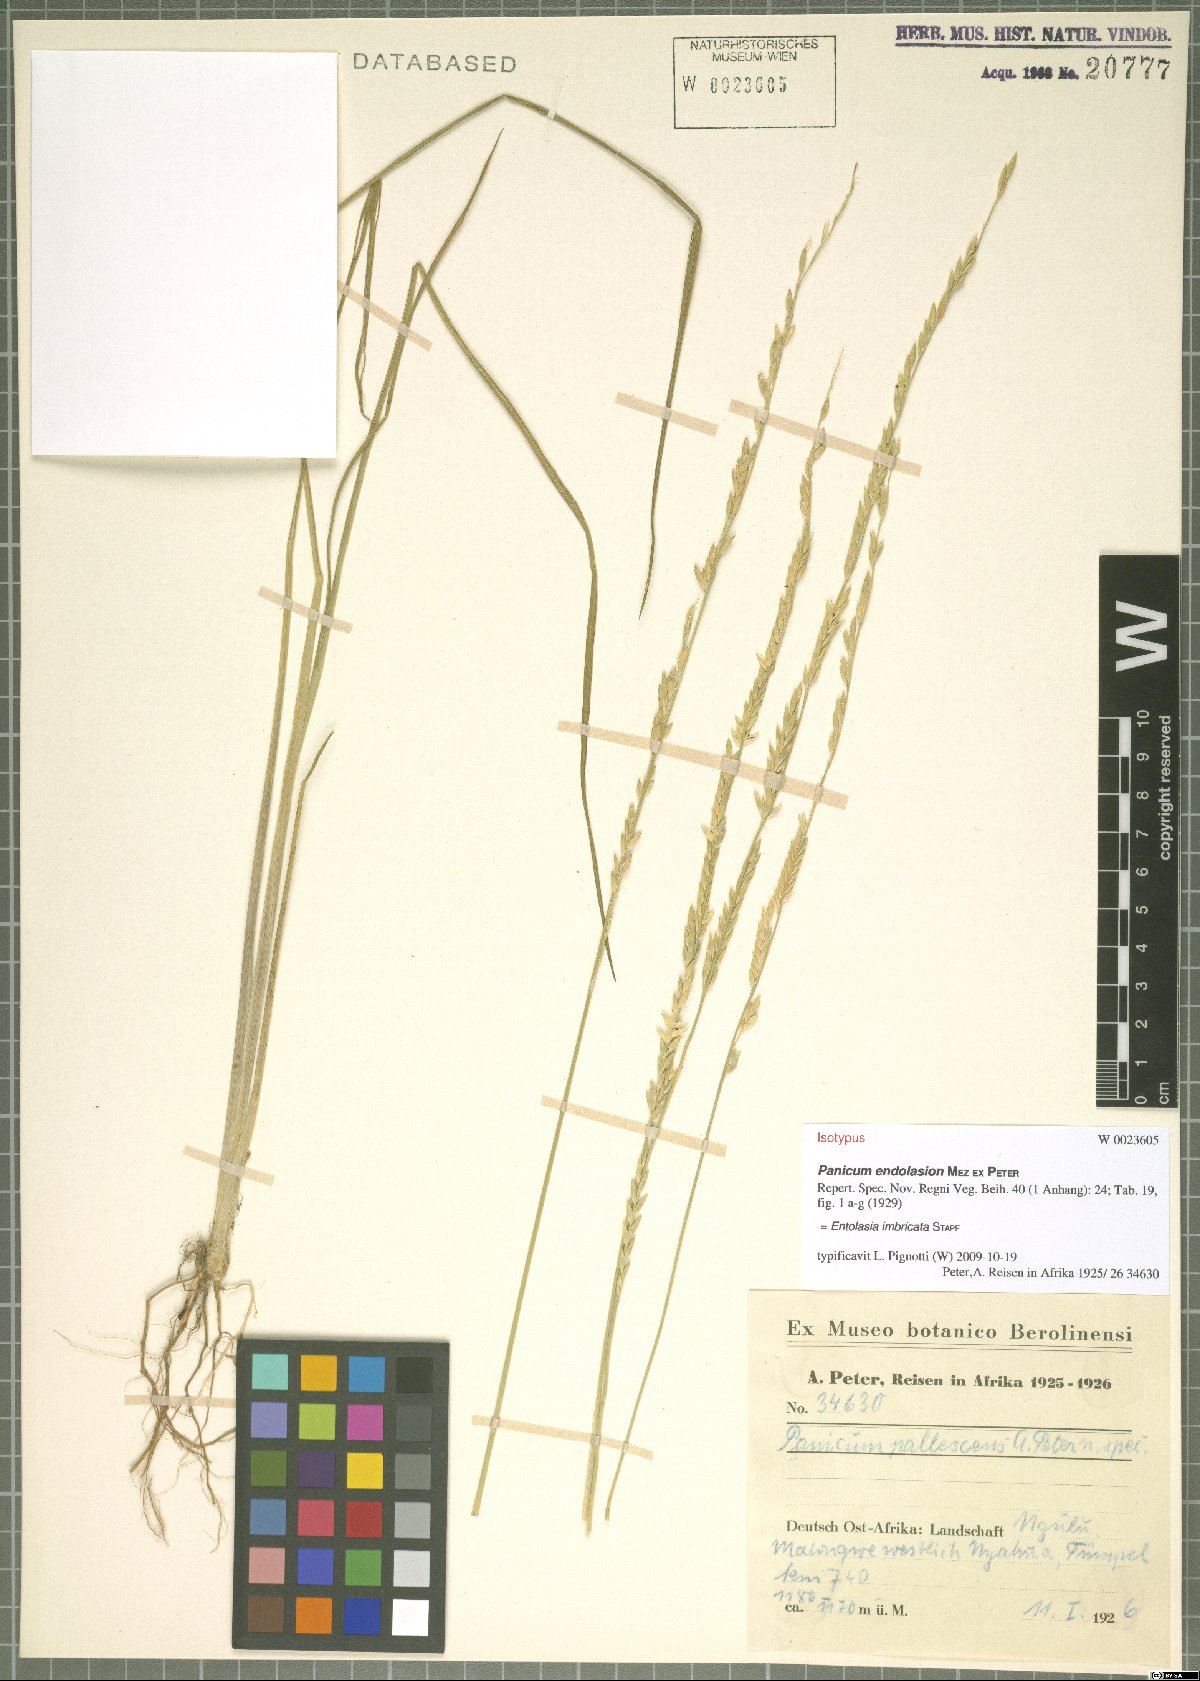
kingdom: Plantae
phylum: Tracheophyta
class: Liliopsida
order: Poales
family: Poaceae
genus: Entolasia
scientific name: Entolasia imbricata
